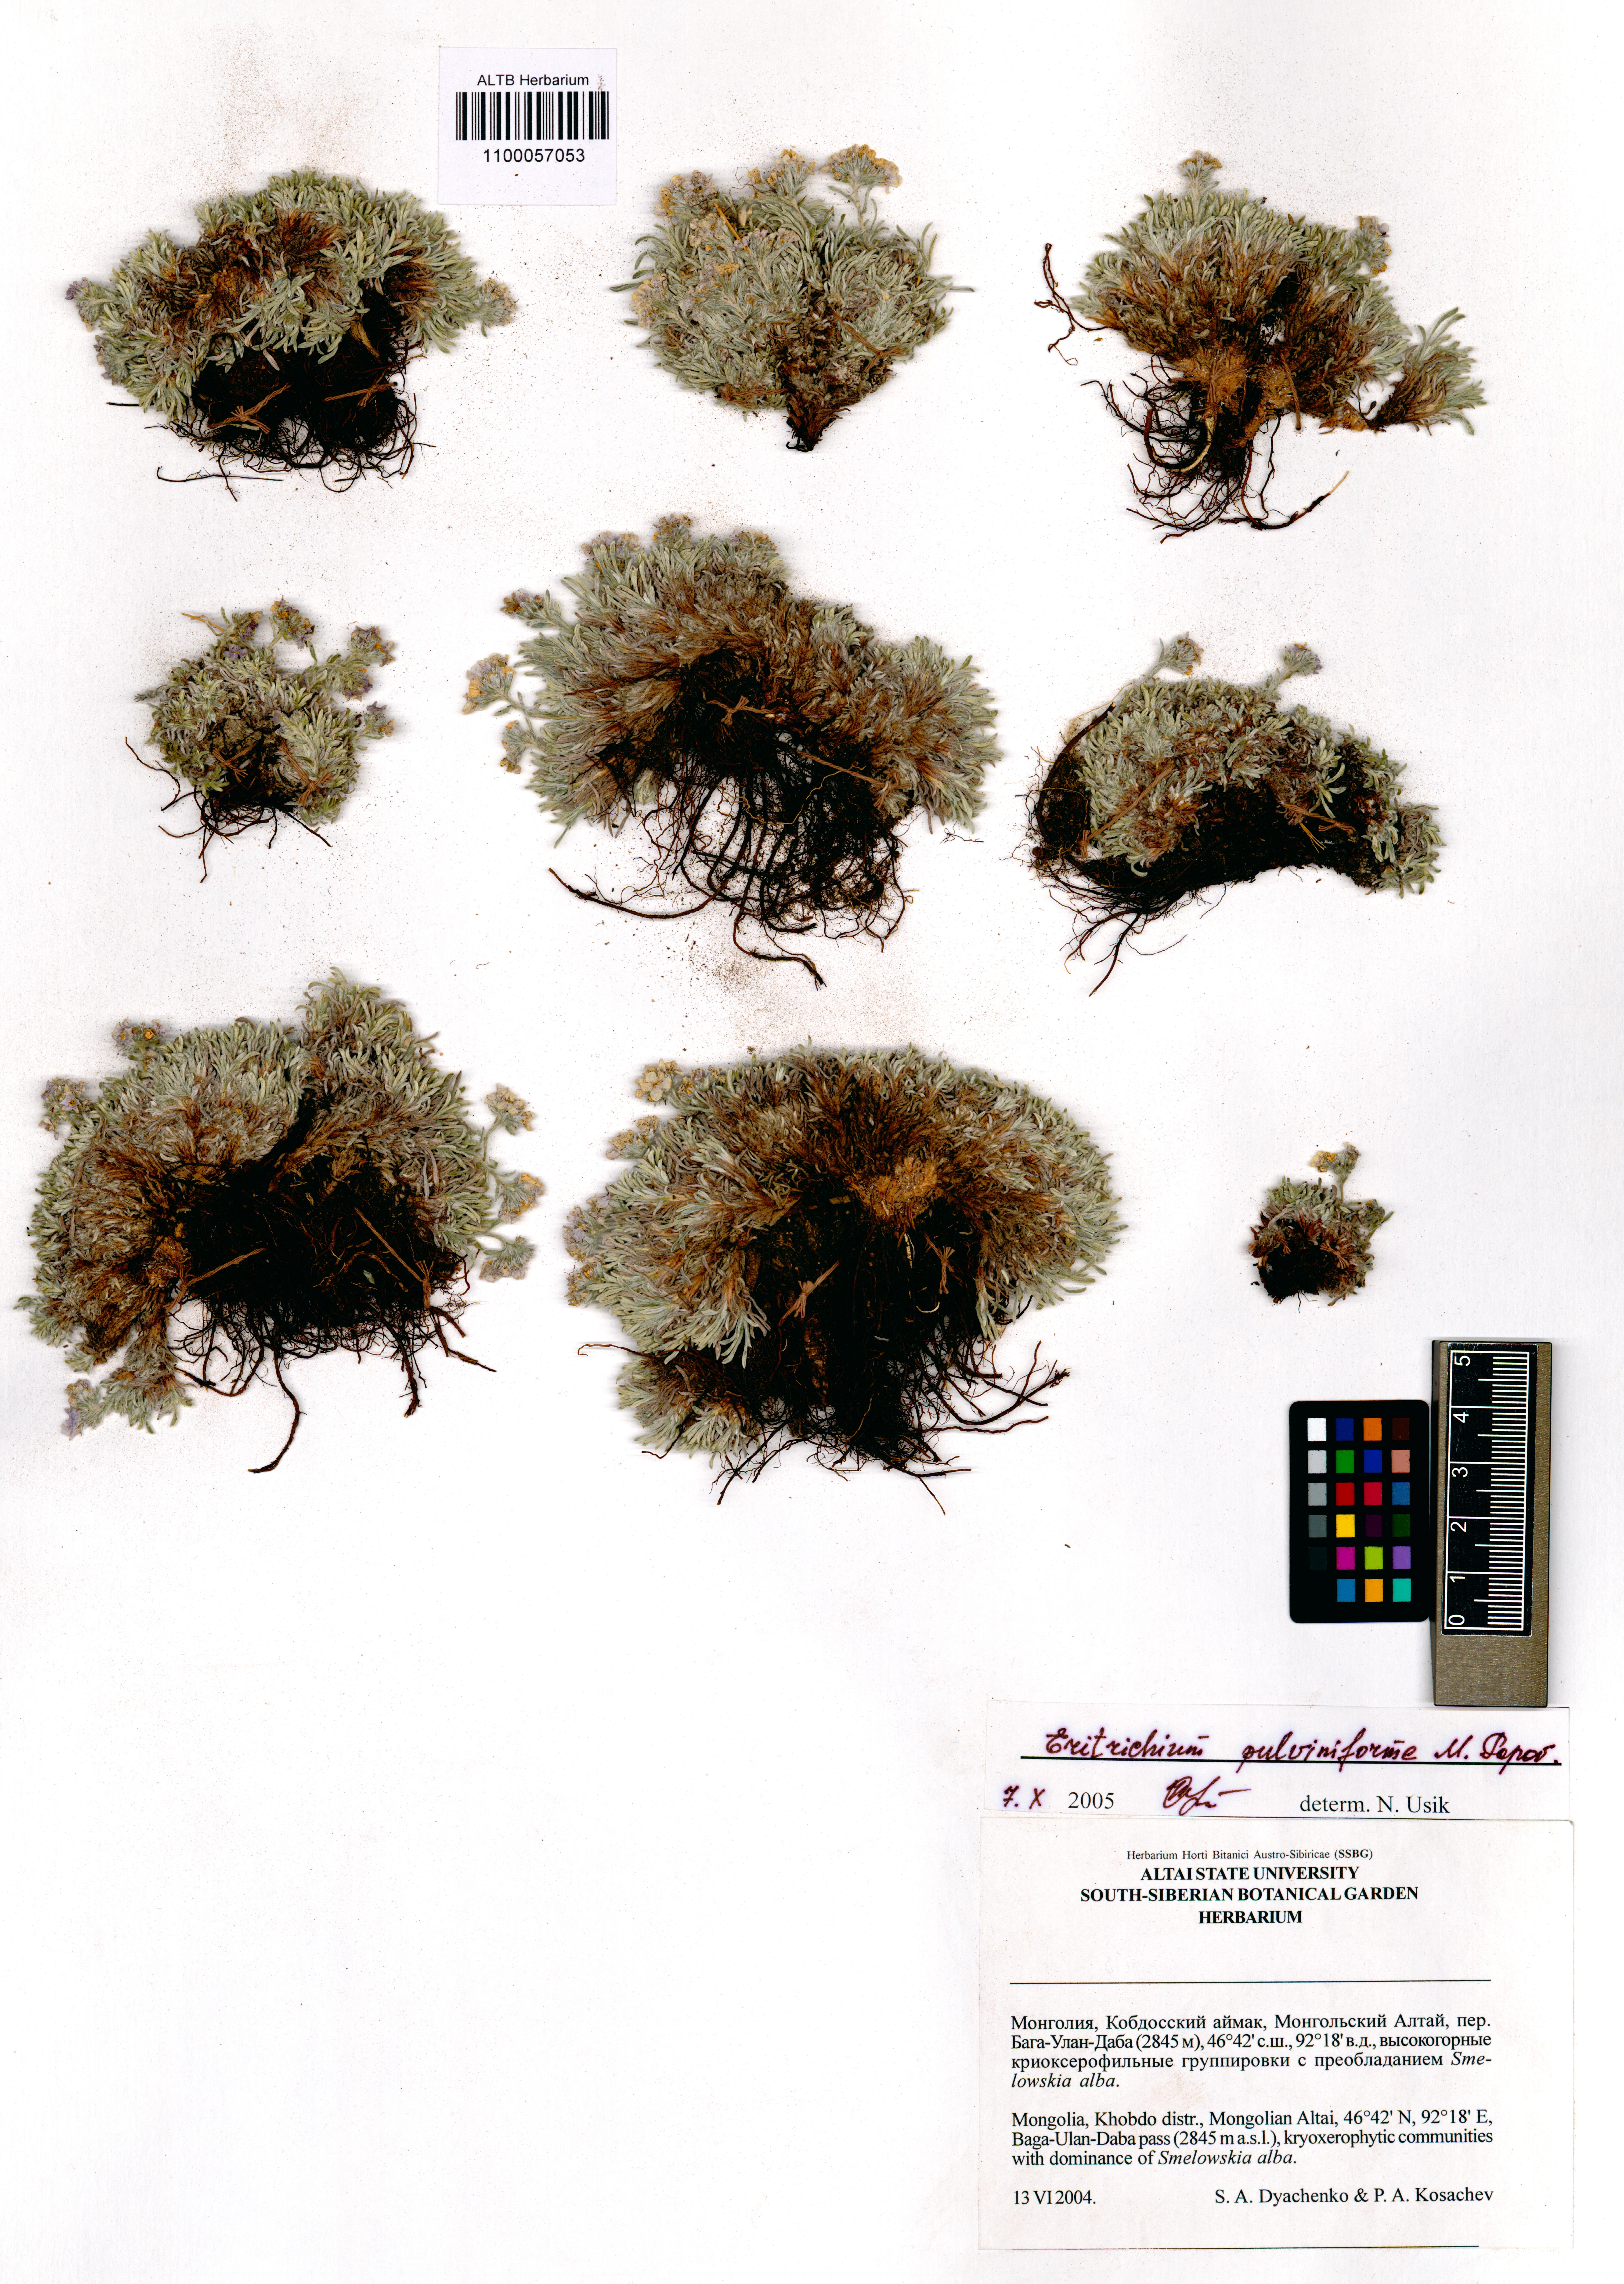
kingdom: Plantae
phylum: Tracheophyta
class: Magnoliopsida
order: Boraginales
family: Boraginaceae
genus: Eritrichium
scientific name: Eritrichium pauciflorum
